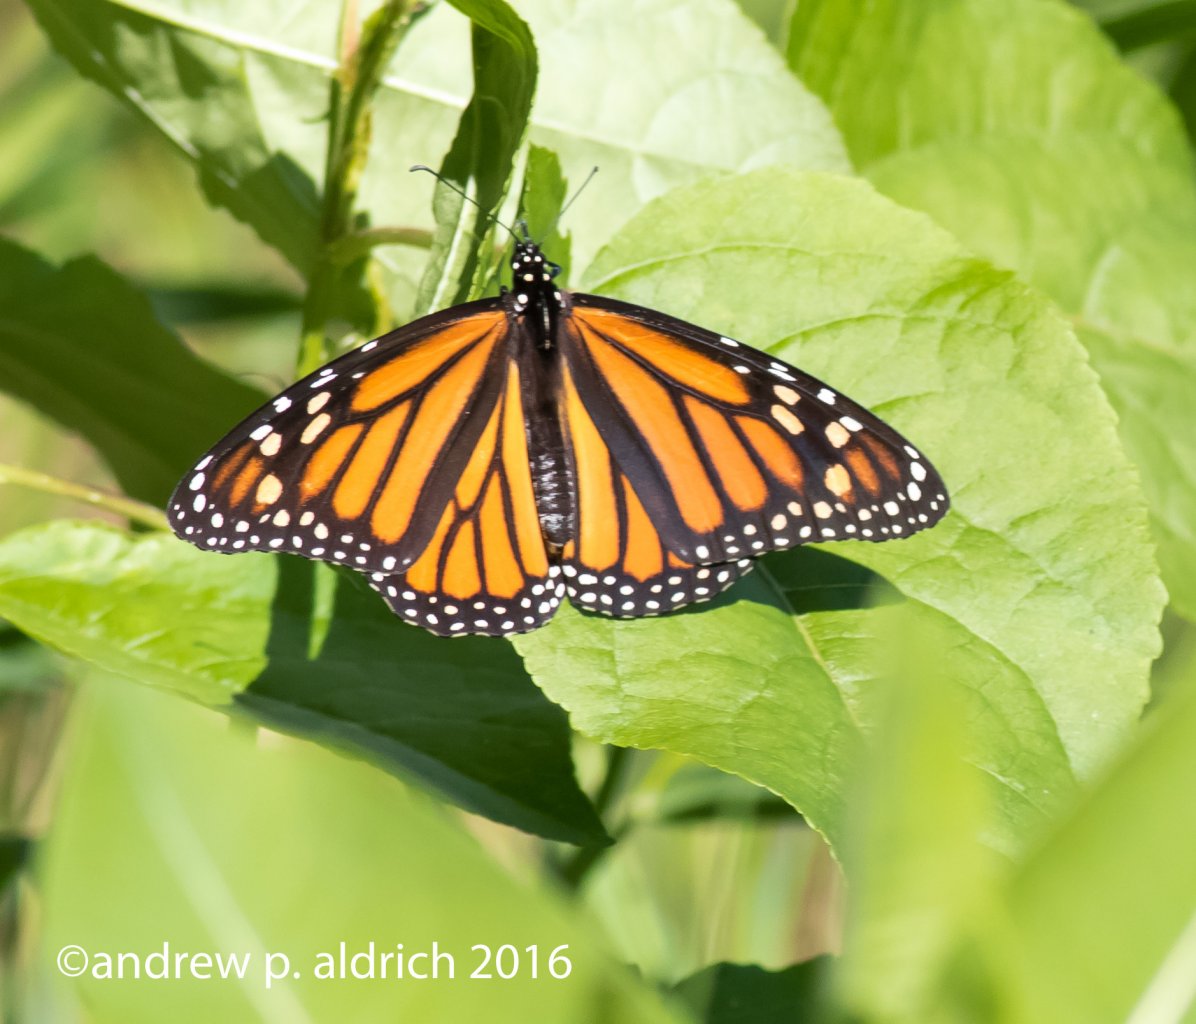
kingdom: Animalia
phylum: Arthropoda
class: Insecta
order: Lepidoptera
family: Nymphalidae
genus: Danaus
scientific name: Danaus plexippus
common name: Monarch
